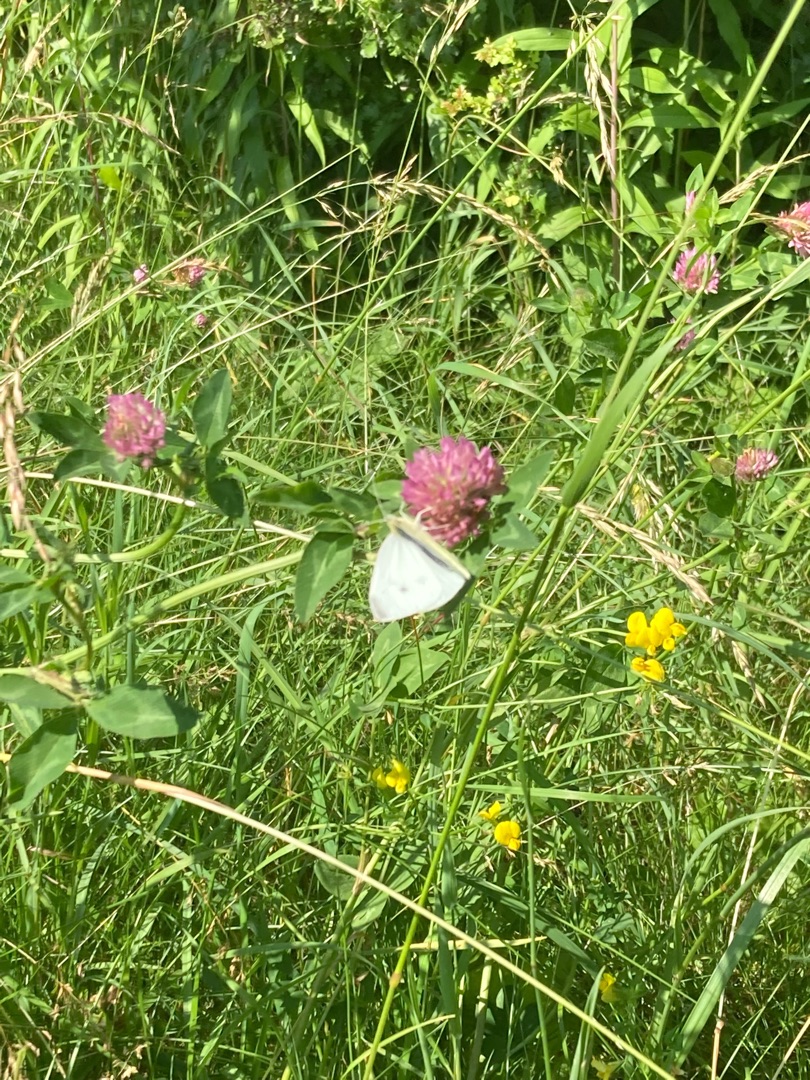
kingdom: Animalia
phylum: Arthropoda
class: Insecta
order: Lepidoptera
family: Pieridae
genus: Pieris
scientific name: Pieris napi
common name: Grønåret kålsommerfugl
